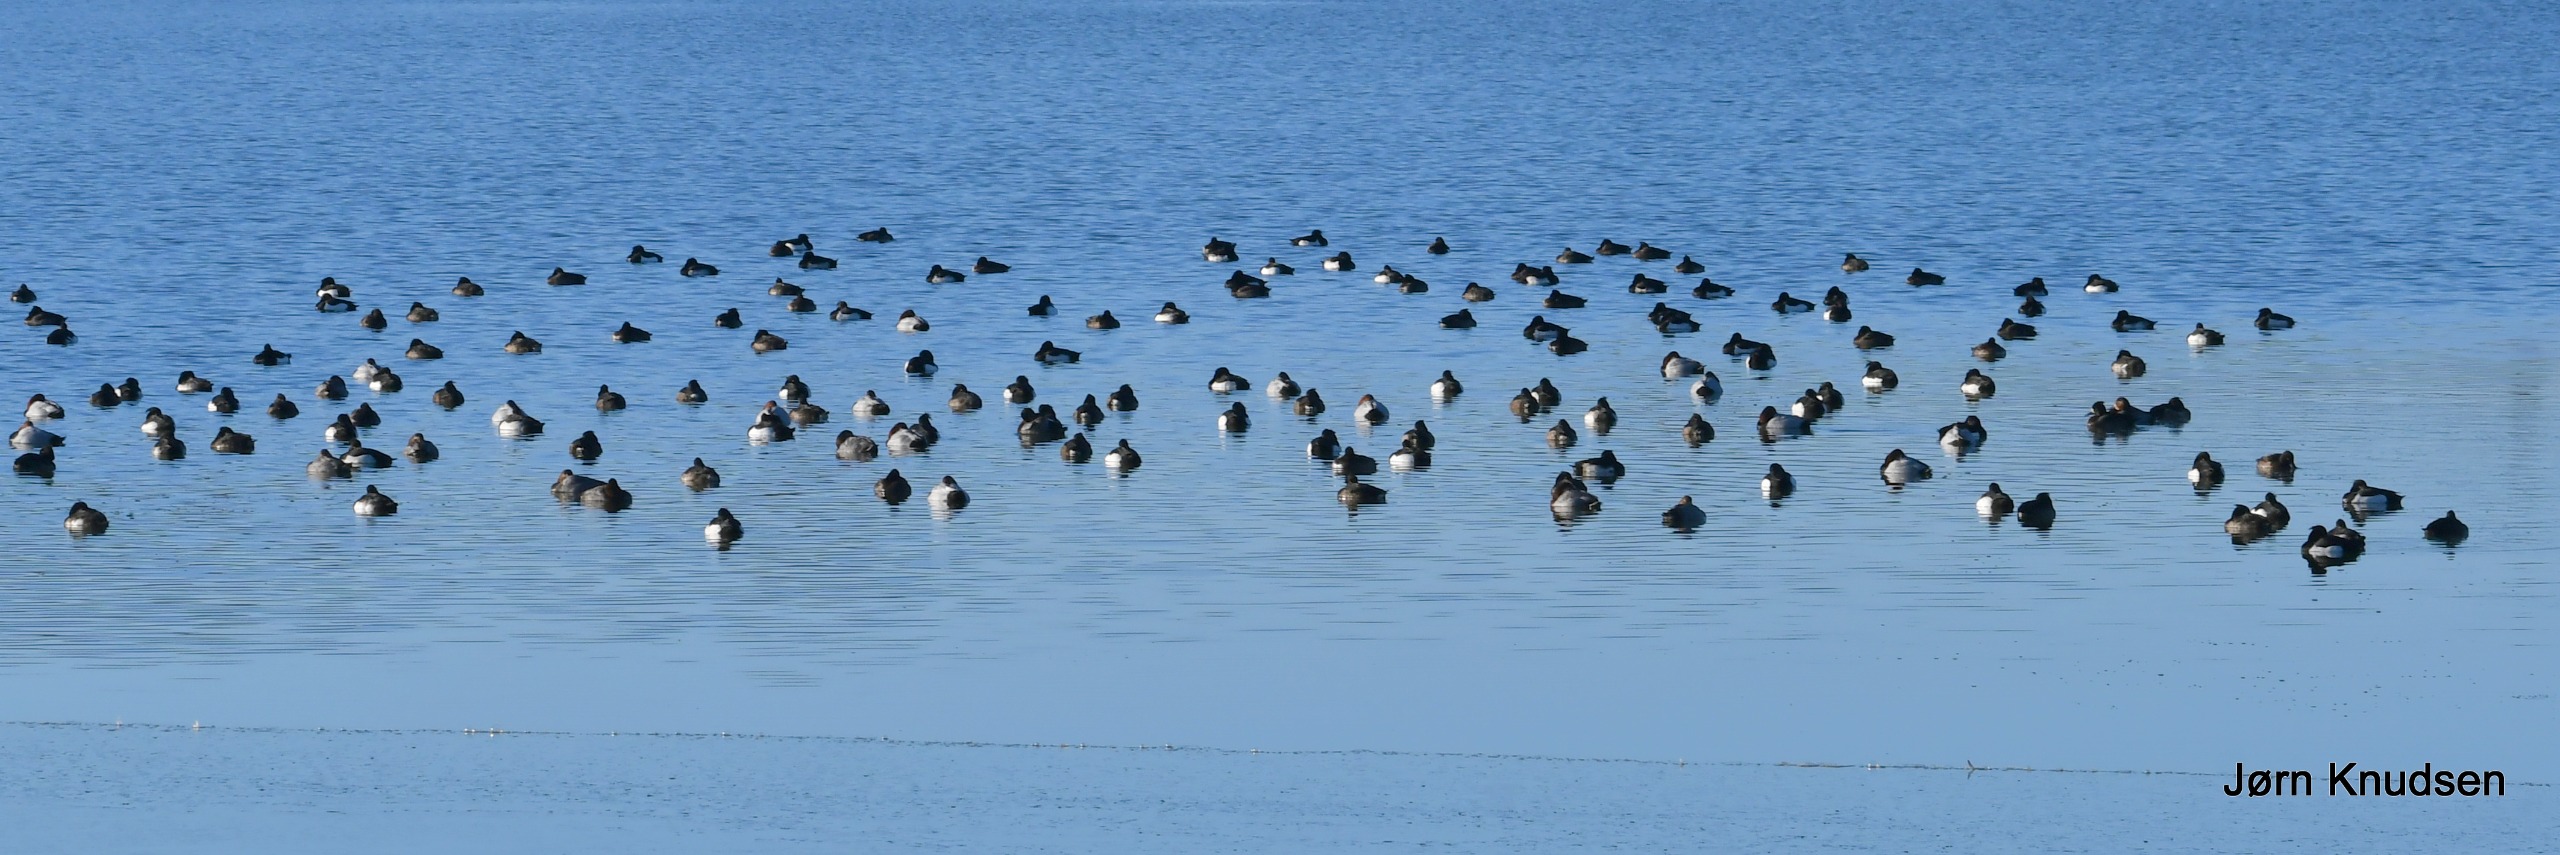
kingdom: Animalia
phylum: Chordata
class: Aves
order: Anseriformes
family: Anatidae
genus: Aythya
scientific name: Aythya fuligula
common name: Troldand
